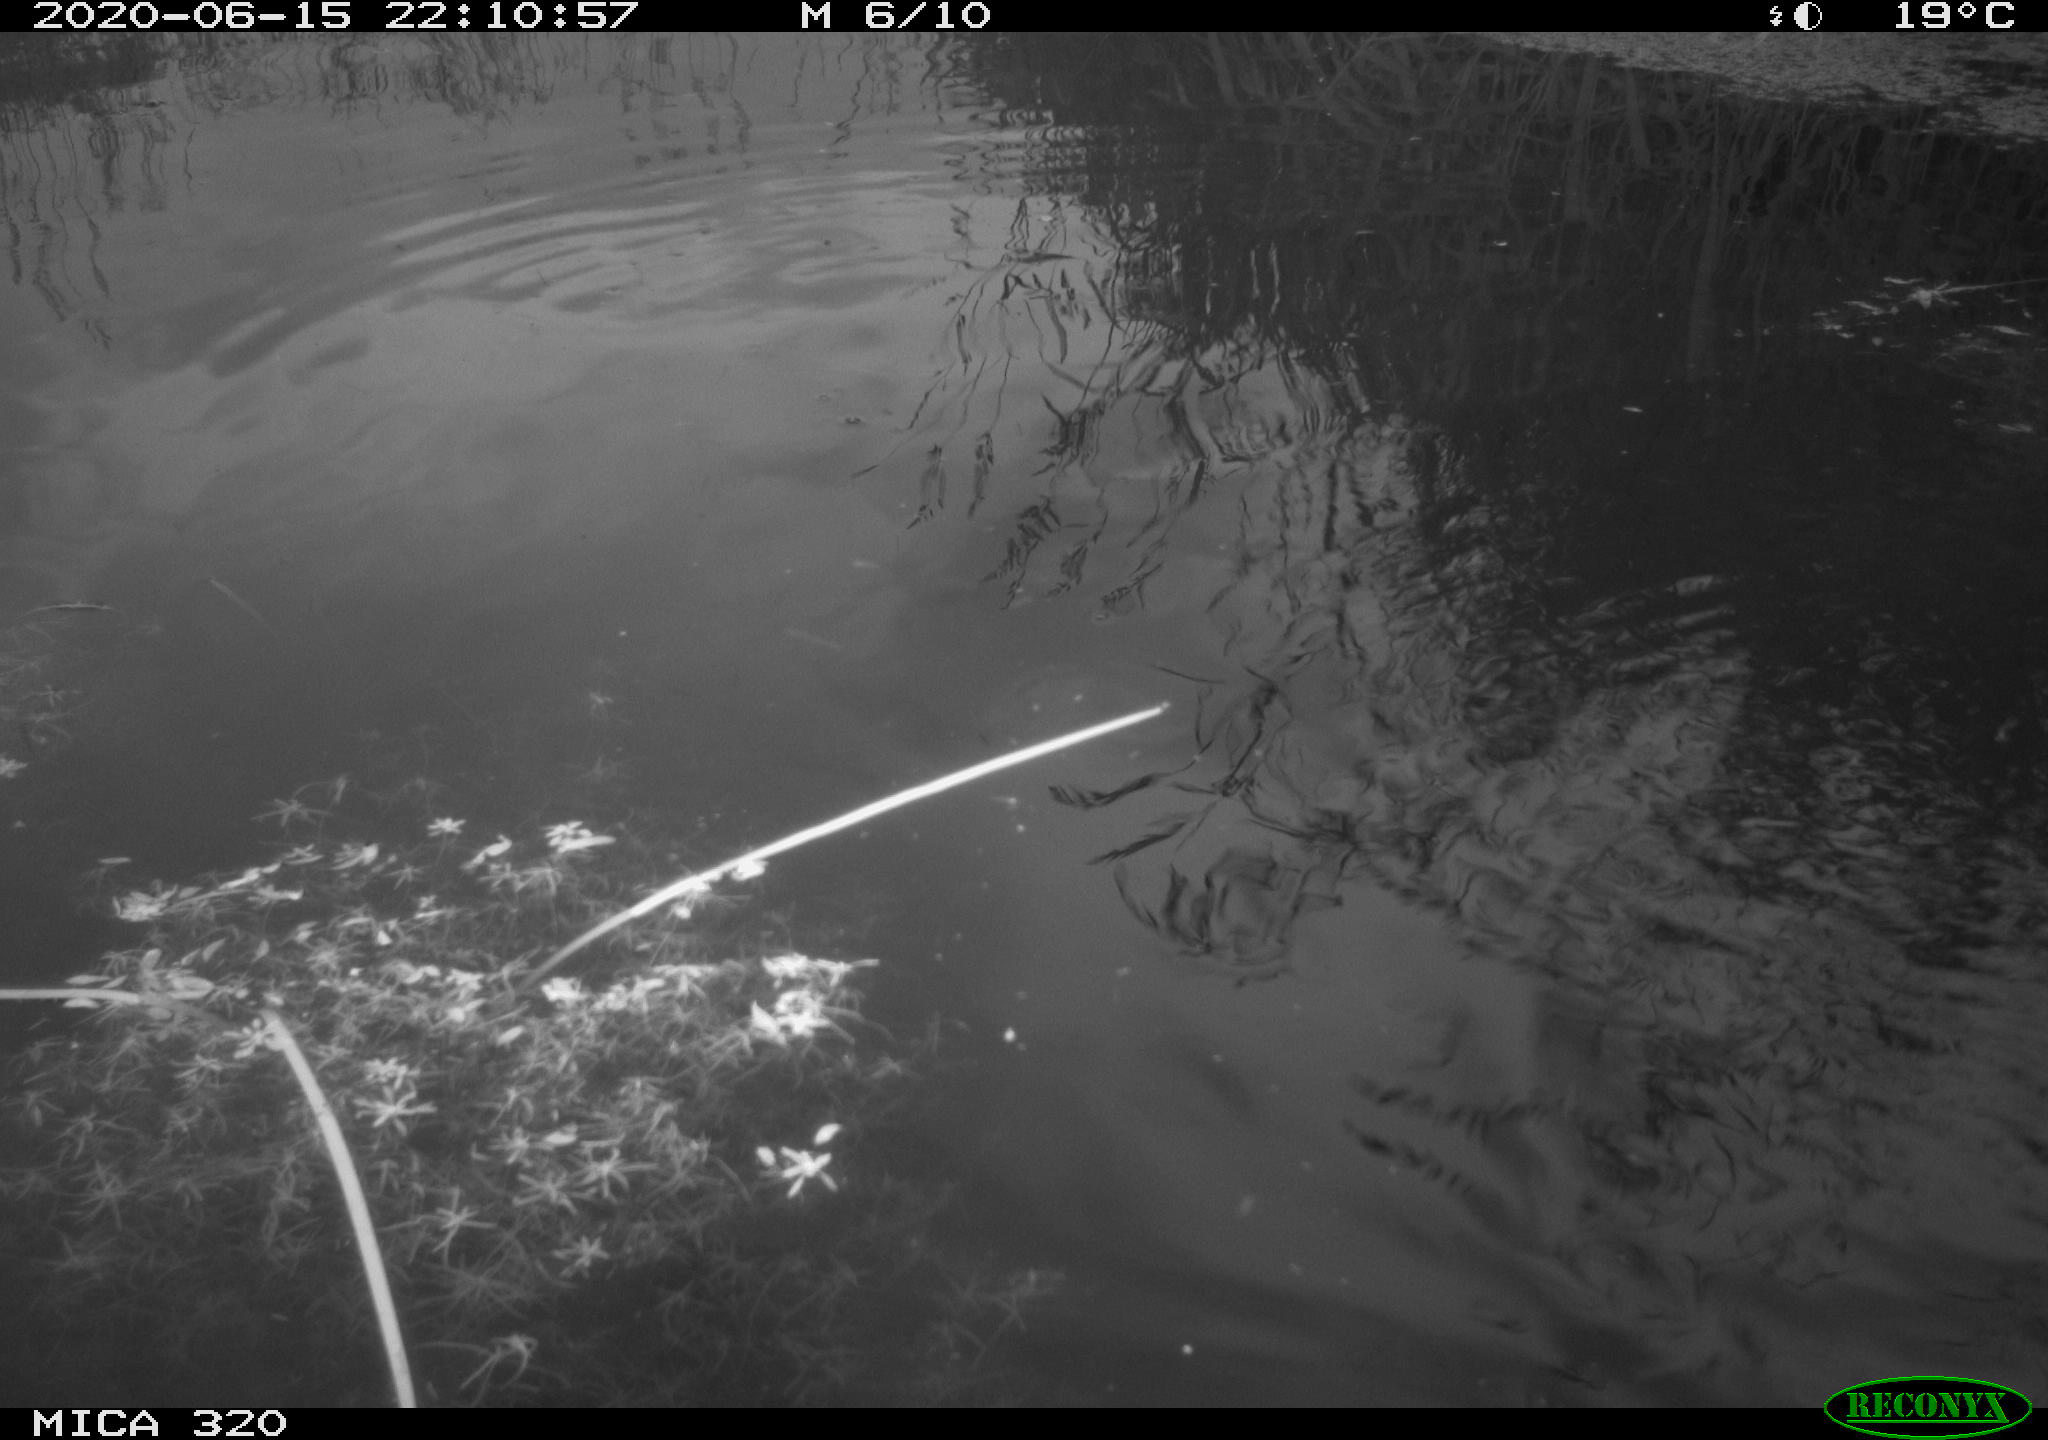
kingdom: Animalia
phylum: Chordata
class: Aves
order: Anseriformes
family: Anatidae
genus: Anas
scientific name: Anas platyrhynchos
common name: Mallard
